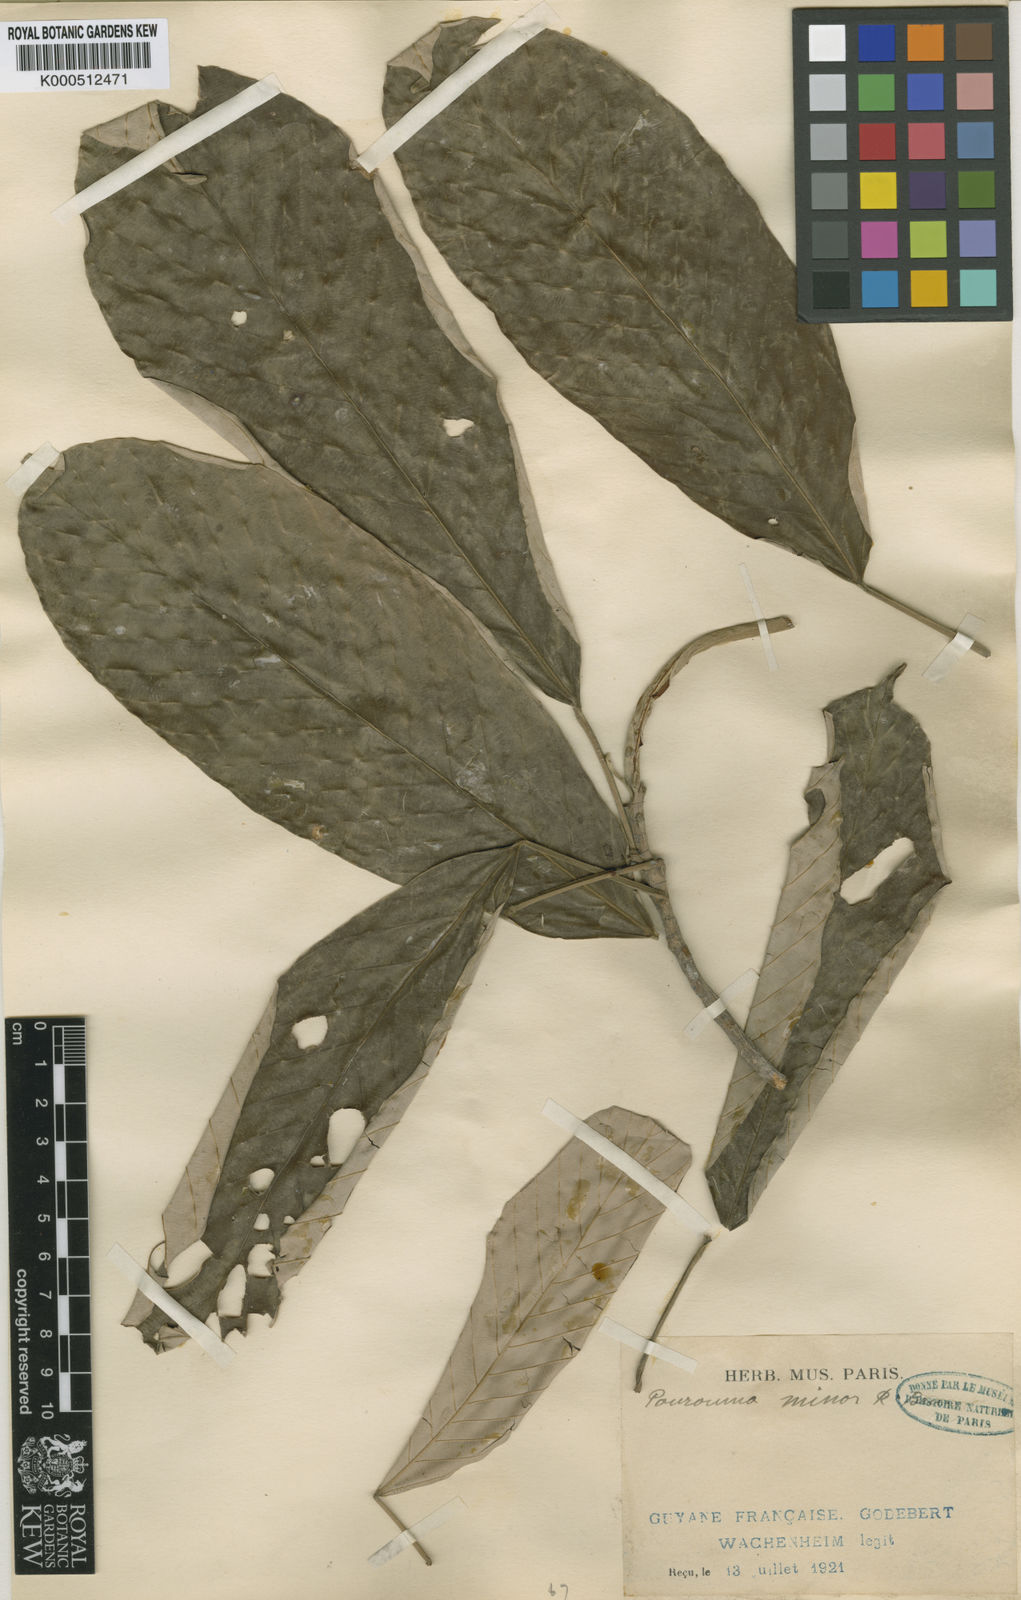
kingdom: Plantae
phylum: Tracheophyta
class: Magnoliopsida
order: Rosales
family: Urticaceae
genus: Pourouma
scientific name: Pourouma minor
